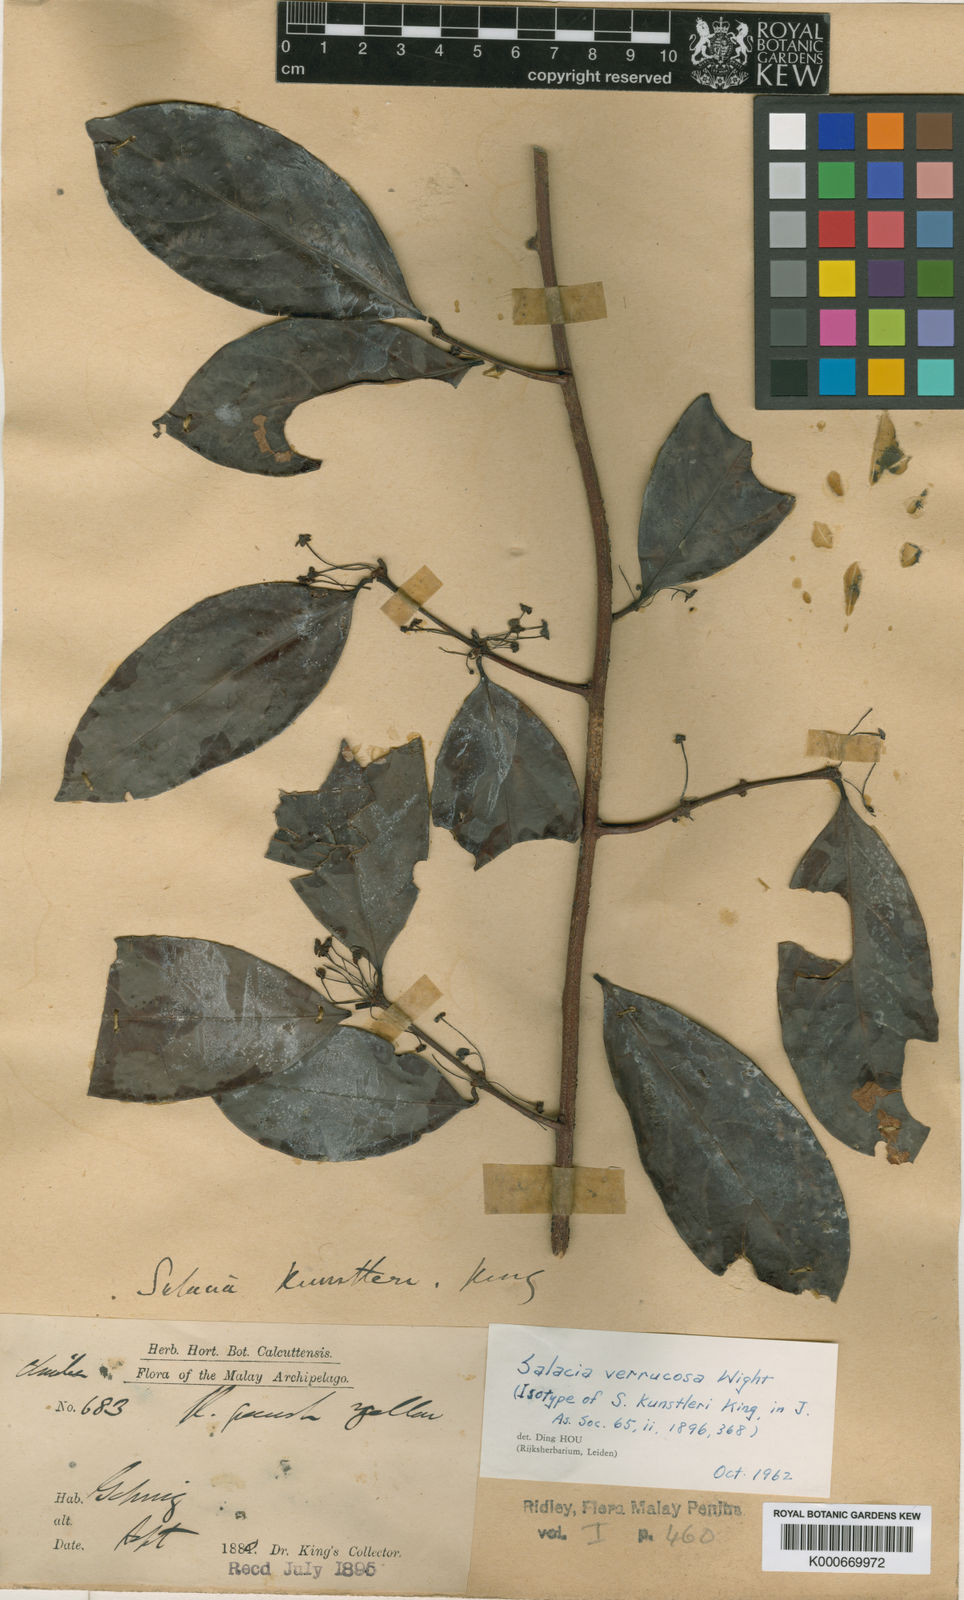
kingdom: Plantae
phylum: Tracheophyta
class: Magnoliopsida
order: Celastrales
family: Celastraceae
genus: Salacia
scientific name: Salacia maingayi
